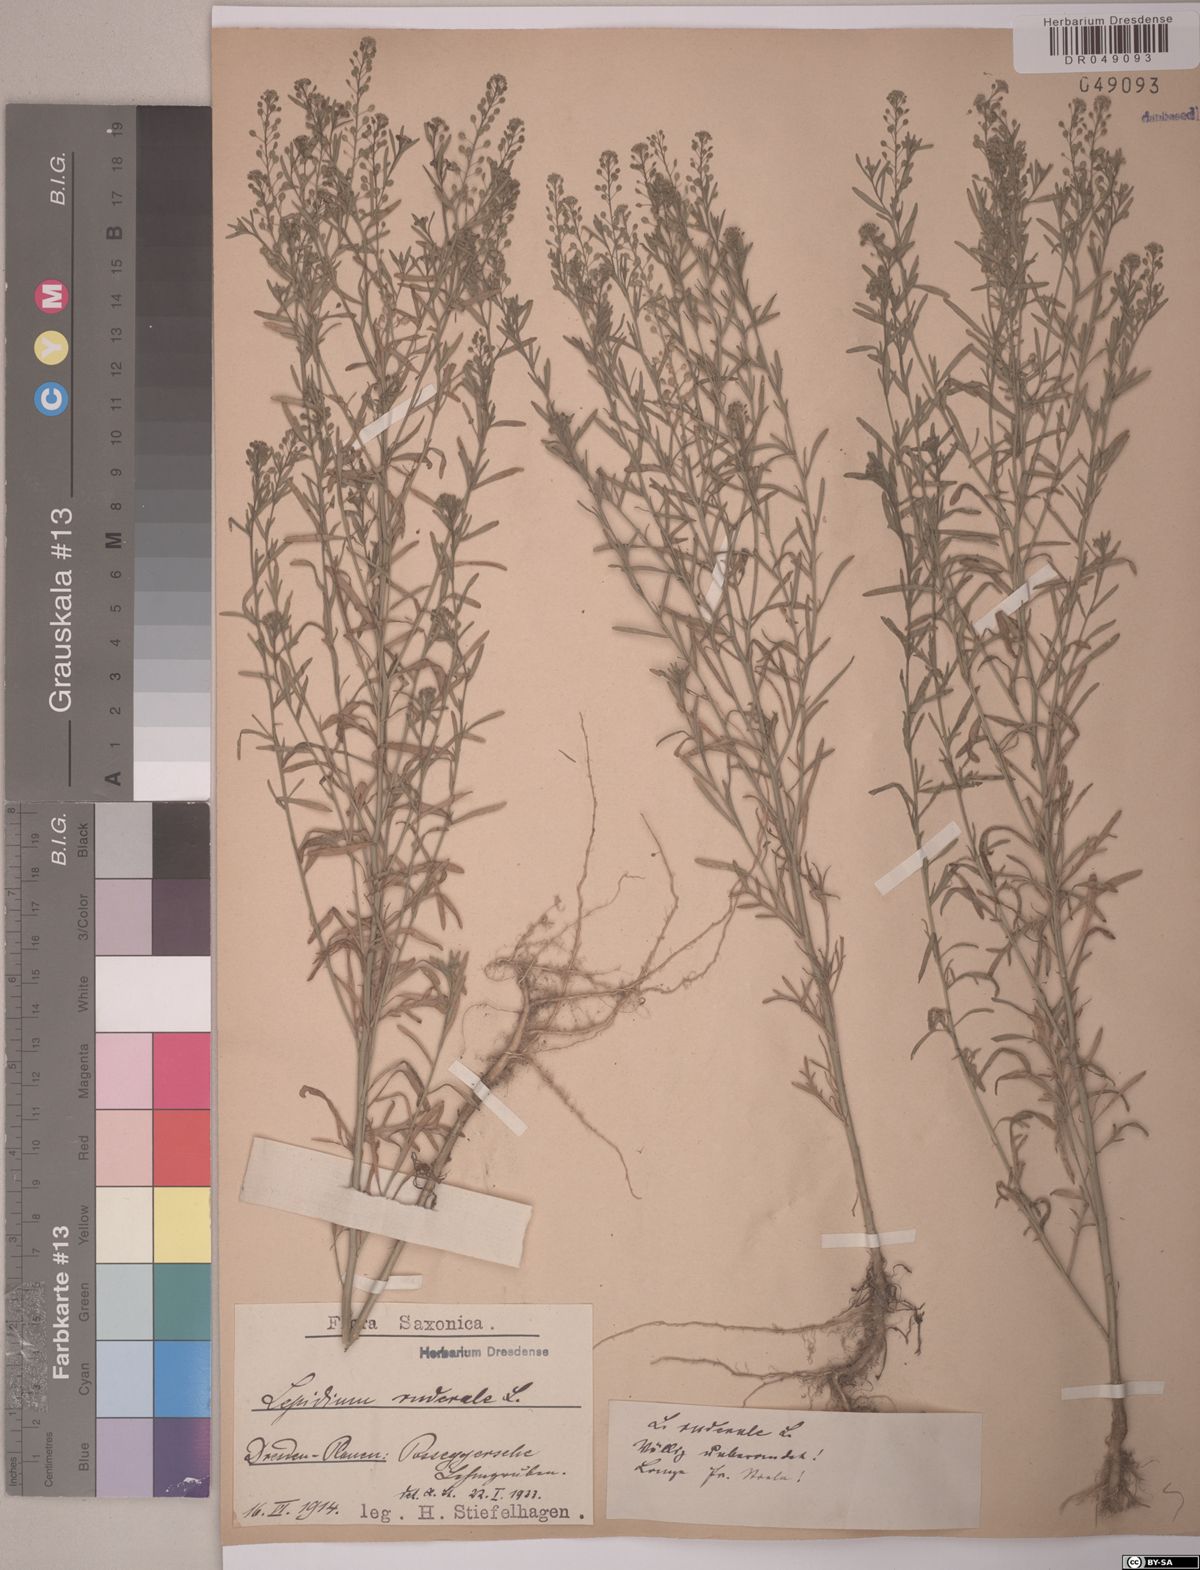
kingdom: Plantae
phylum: Tracheophyta
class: Magnoliopsida
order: Brassicales
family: Brassicaceae
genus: Lepidium
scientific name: Lepidium ruderale
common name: Narrow-leaved pepperwort
